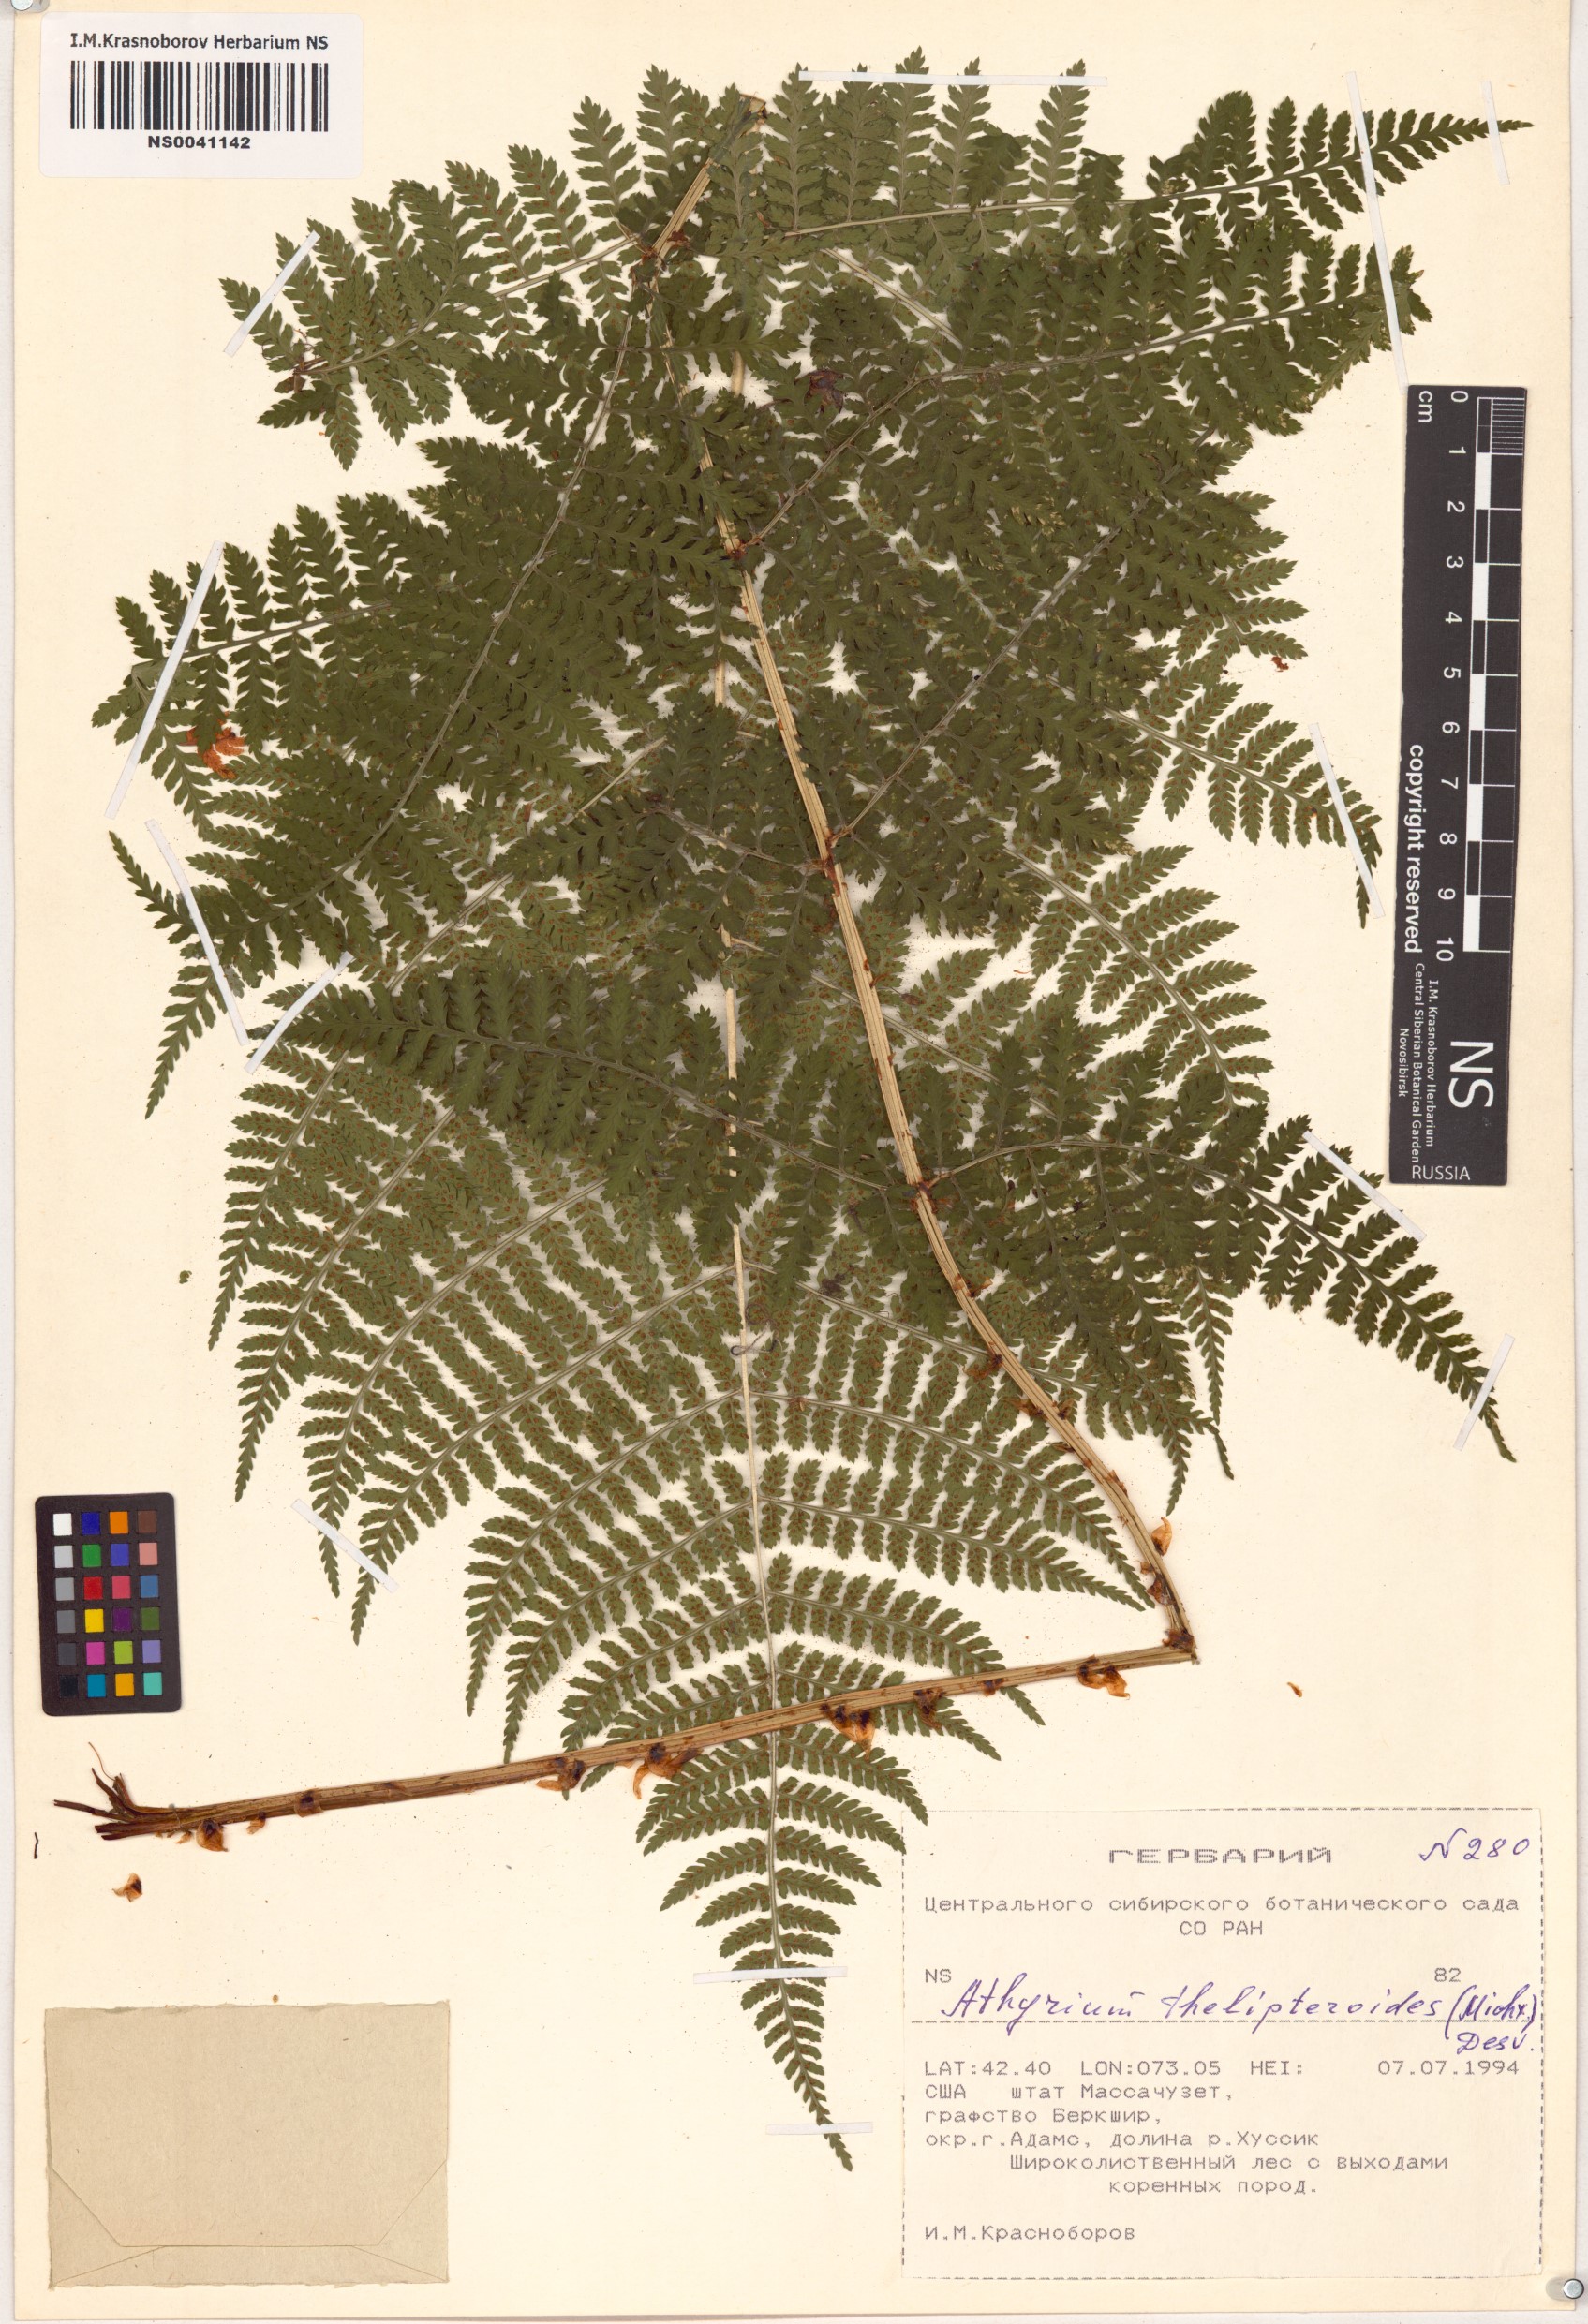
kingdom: Plantae
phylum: Tracheophyta
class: Polypodiopsida
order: Polypodiales
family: Athyriaceae
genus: Deparia
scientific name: Deparia acrostichoides
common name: Silver false spleenwort
